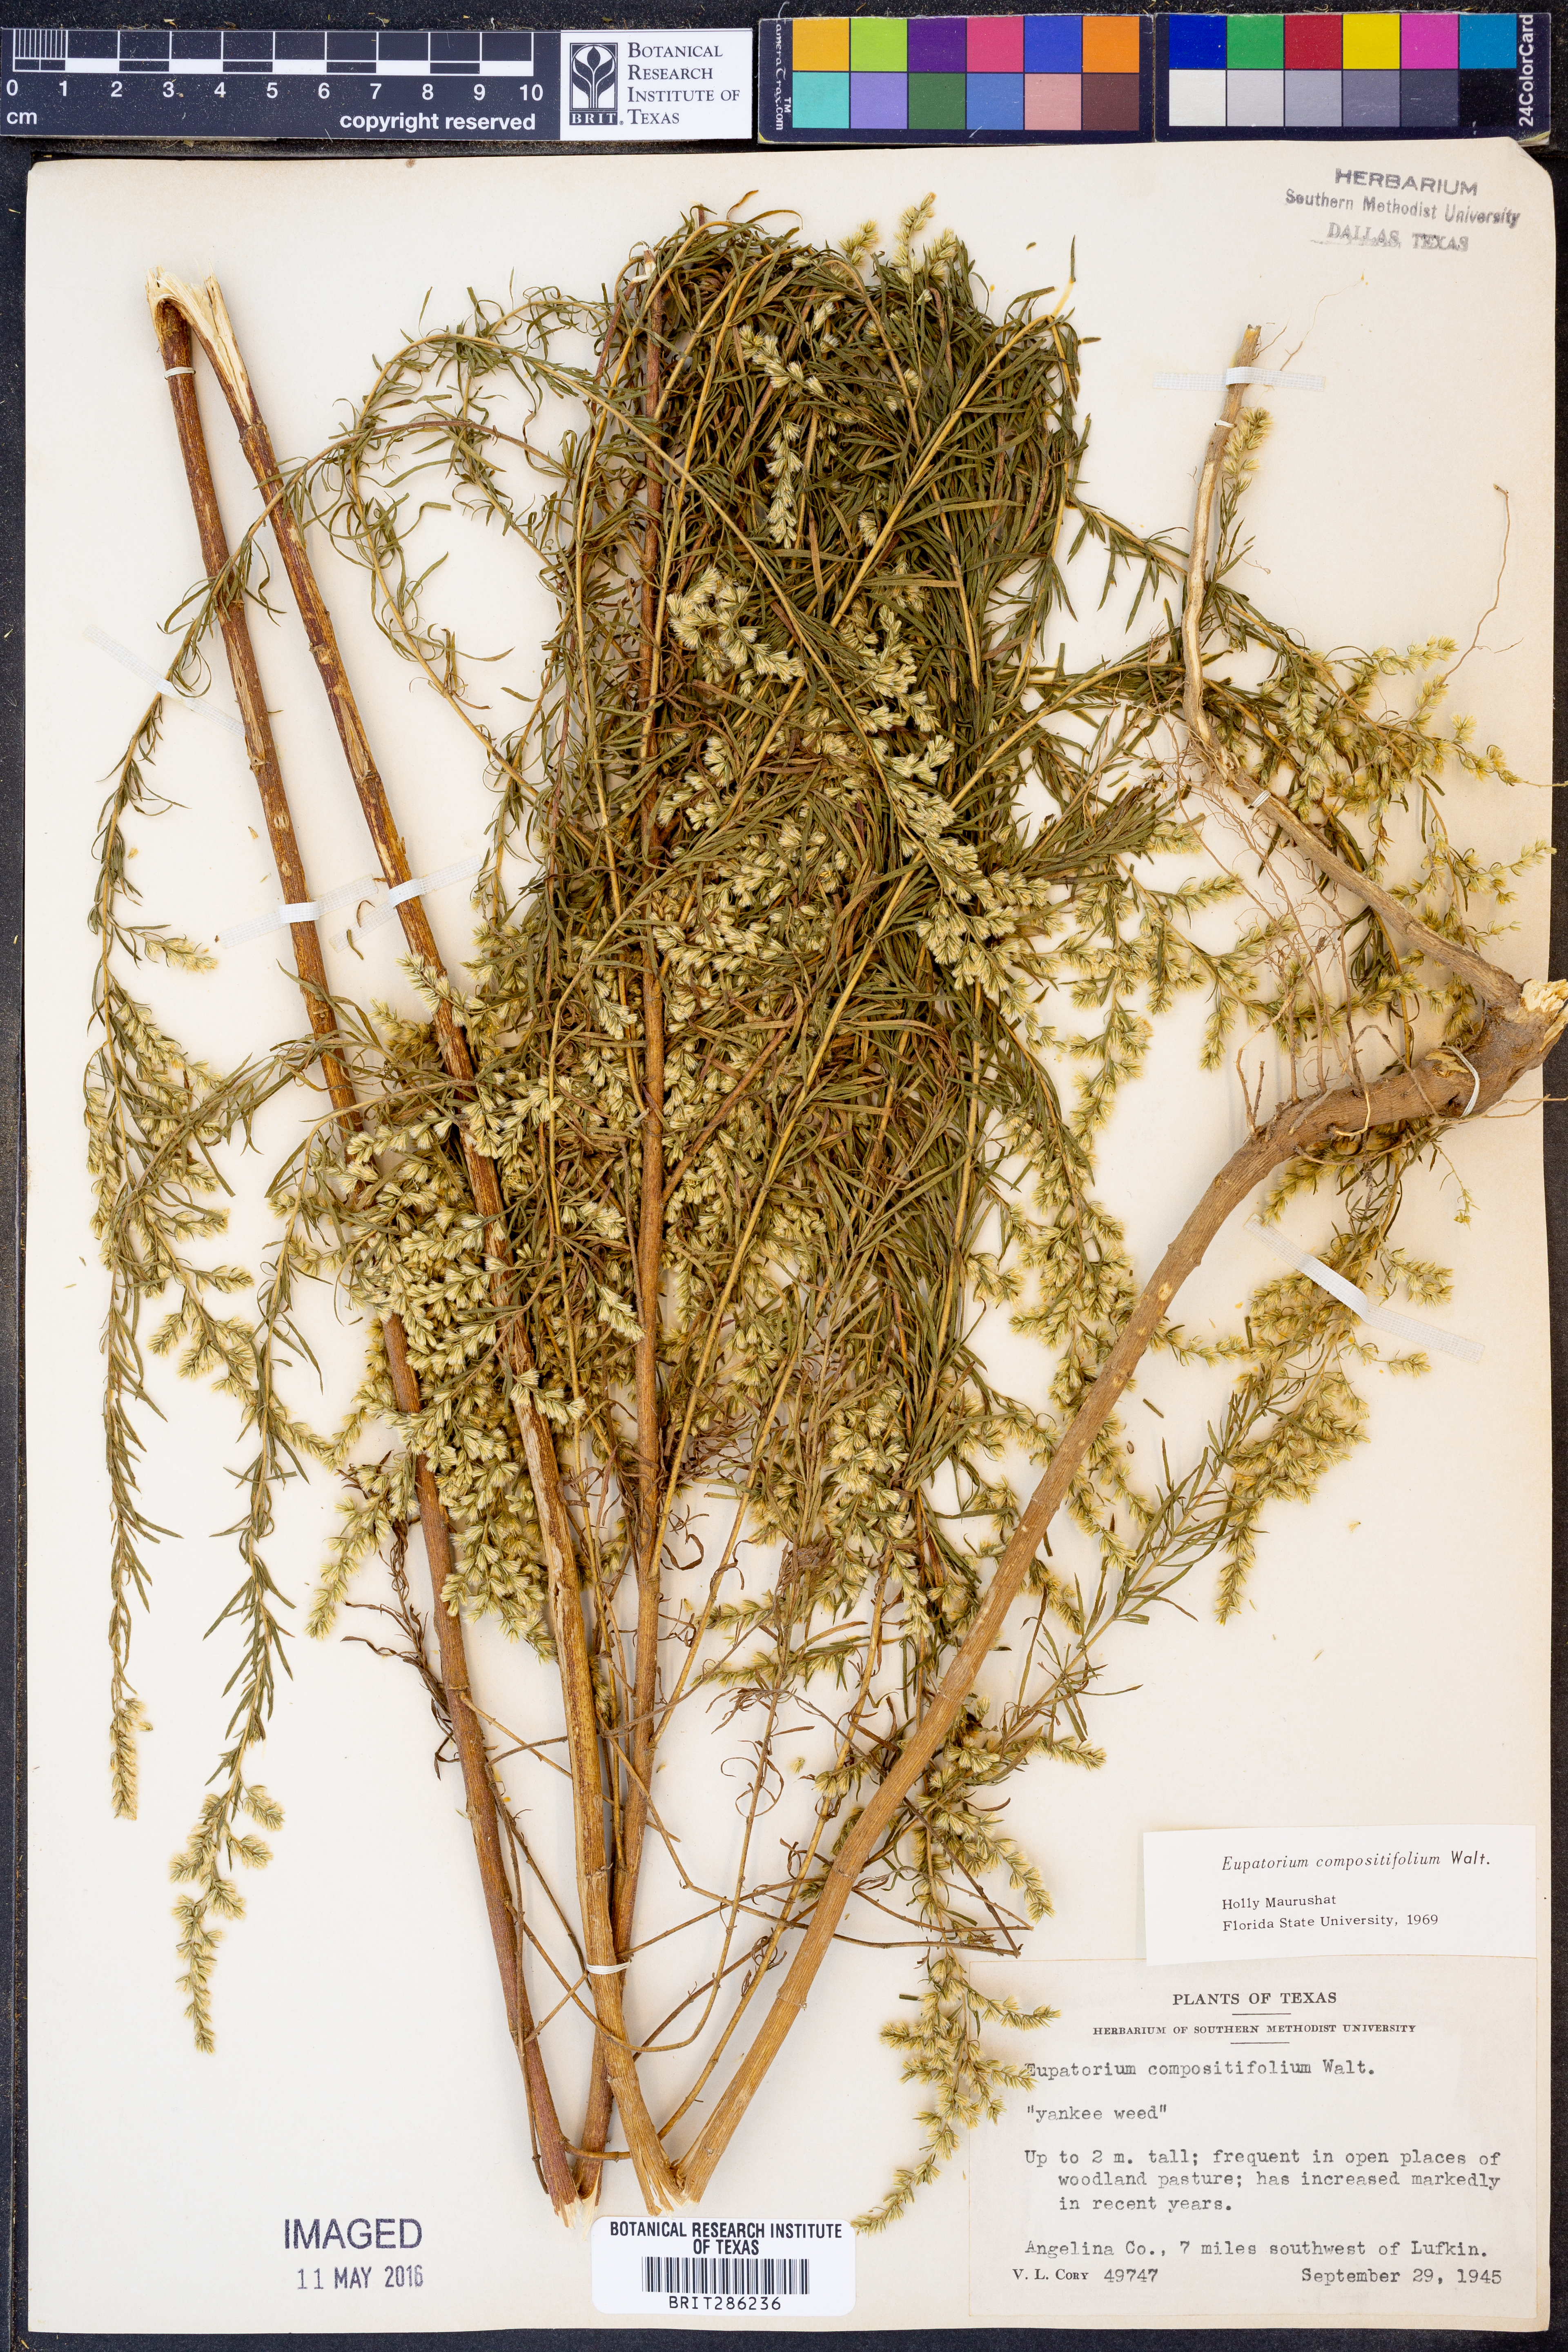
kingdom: Plantae
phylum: Tracheophyta
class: Magnoliopsida
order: Asterales
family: Asteraceae
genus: Eupatorium
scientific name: Eupatorium compositifolium
